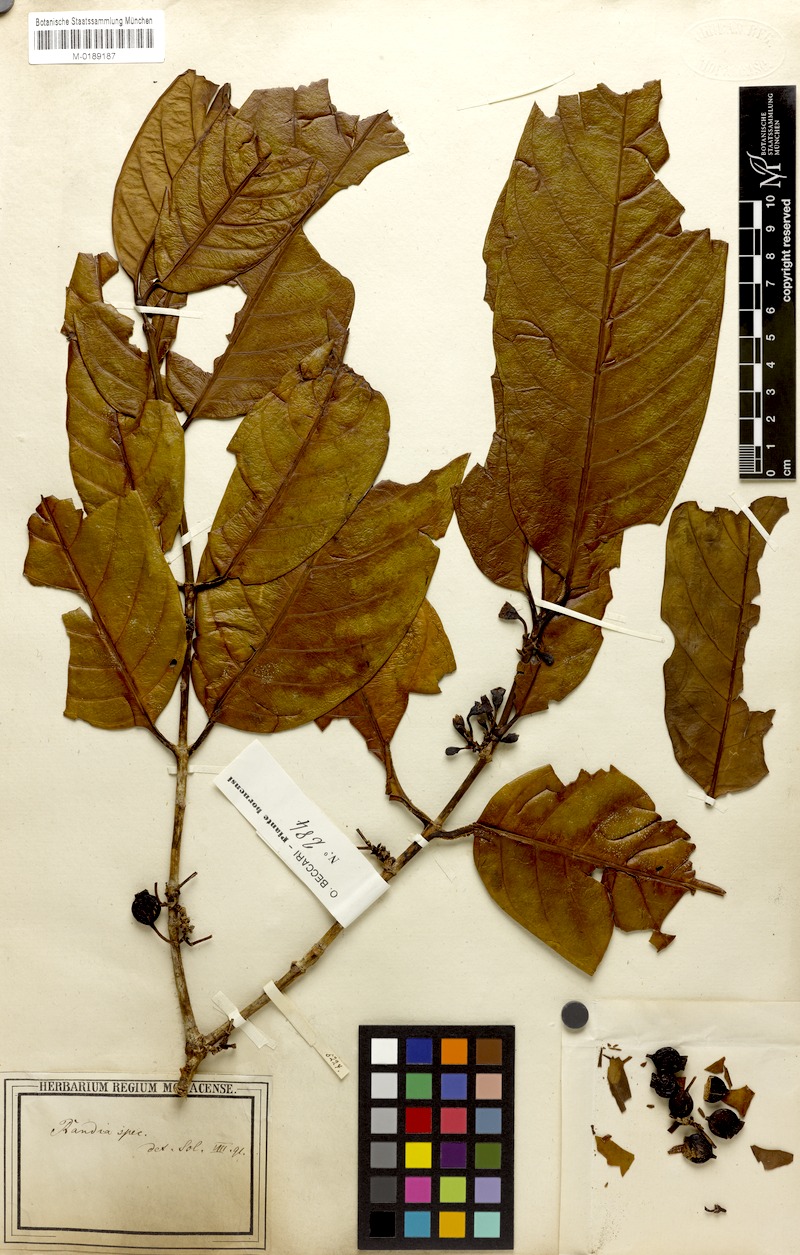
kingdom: Plantae
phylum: Tracheophyta
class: Magnoliopsida
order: Gentianales
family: Rubiaceae
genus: Randia
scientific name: Randia
